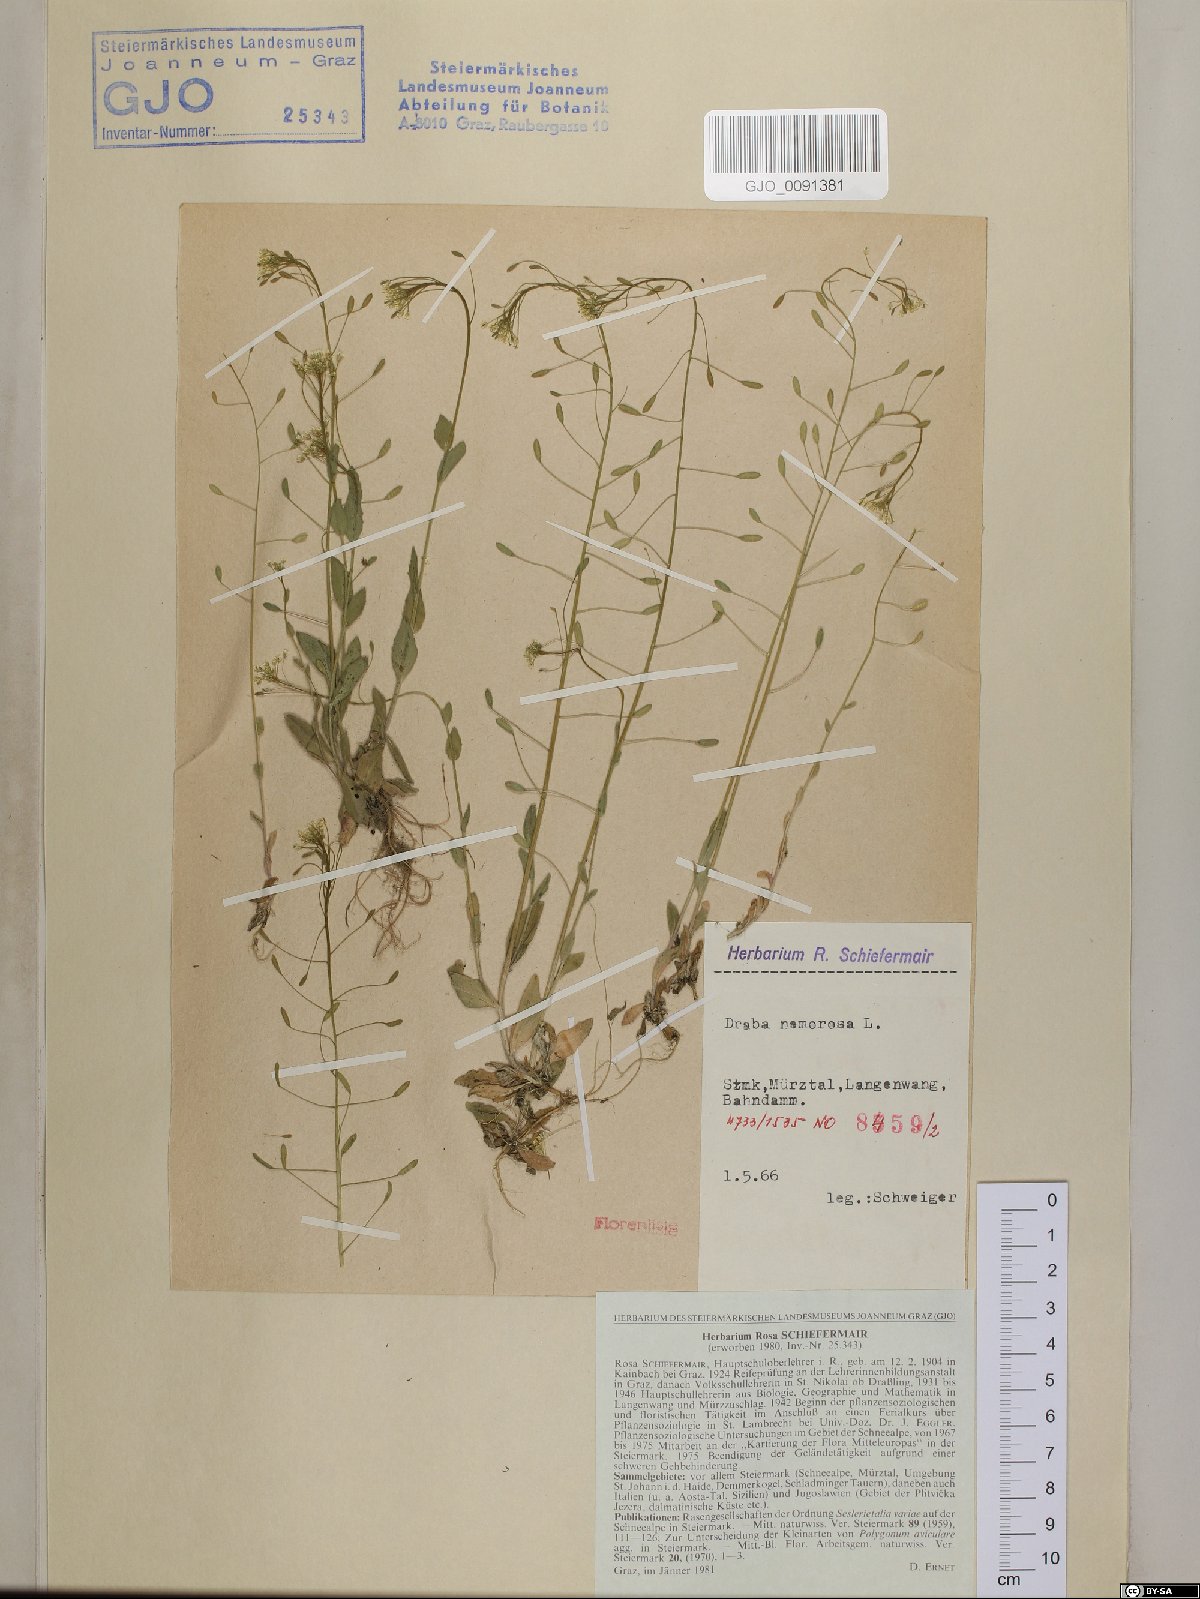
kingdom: Plantae
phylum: Tracheophyta
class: Magnoliopsida
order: Brassicales
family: Brassicaceae
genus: Draba
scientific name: Draba nemorosa
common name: Wood whitlow-grass
